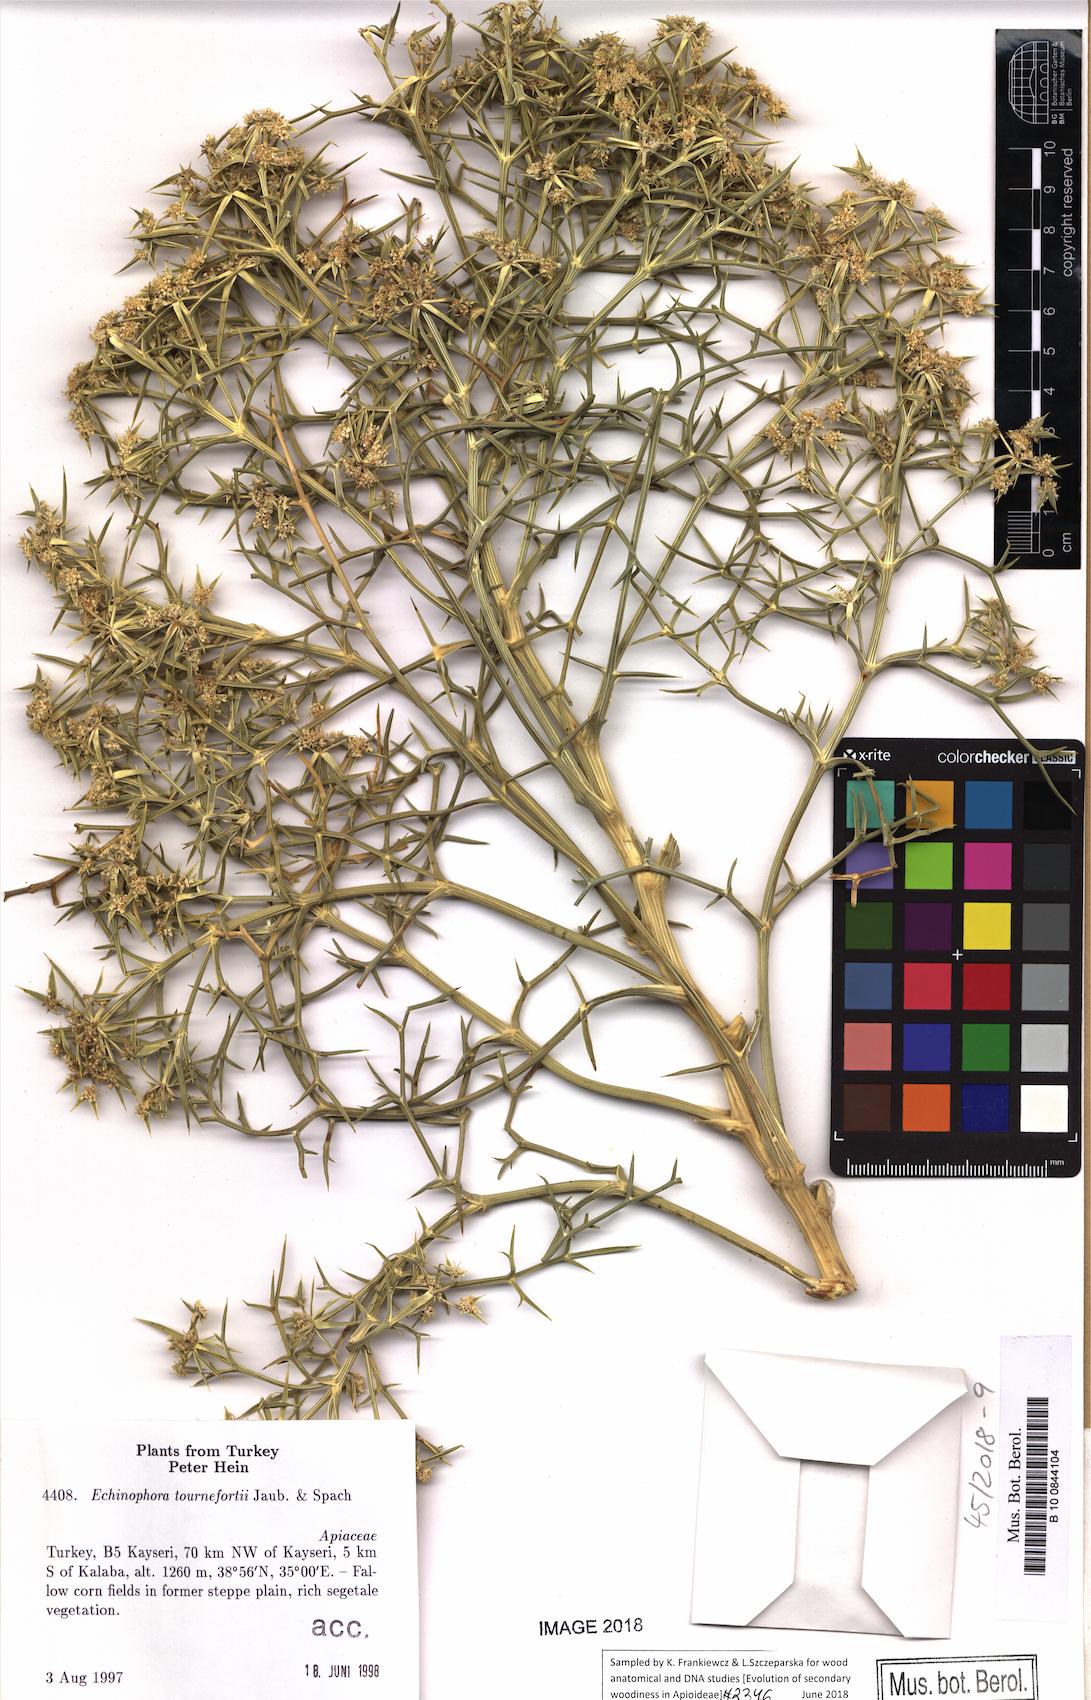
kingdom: Plantae
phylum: Tracheophyta
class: Magnoliopsida
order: Apiales
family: Apiaceae
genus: Echinophora
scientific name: Echinophora tournefortii
